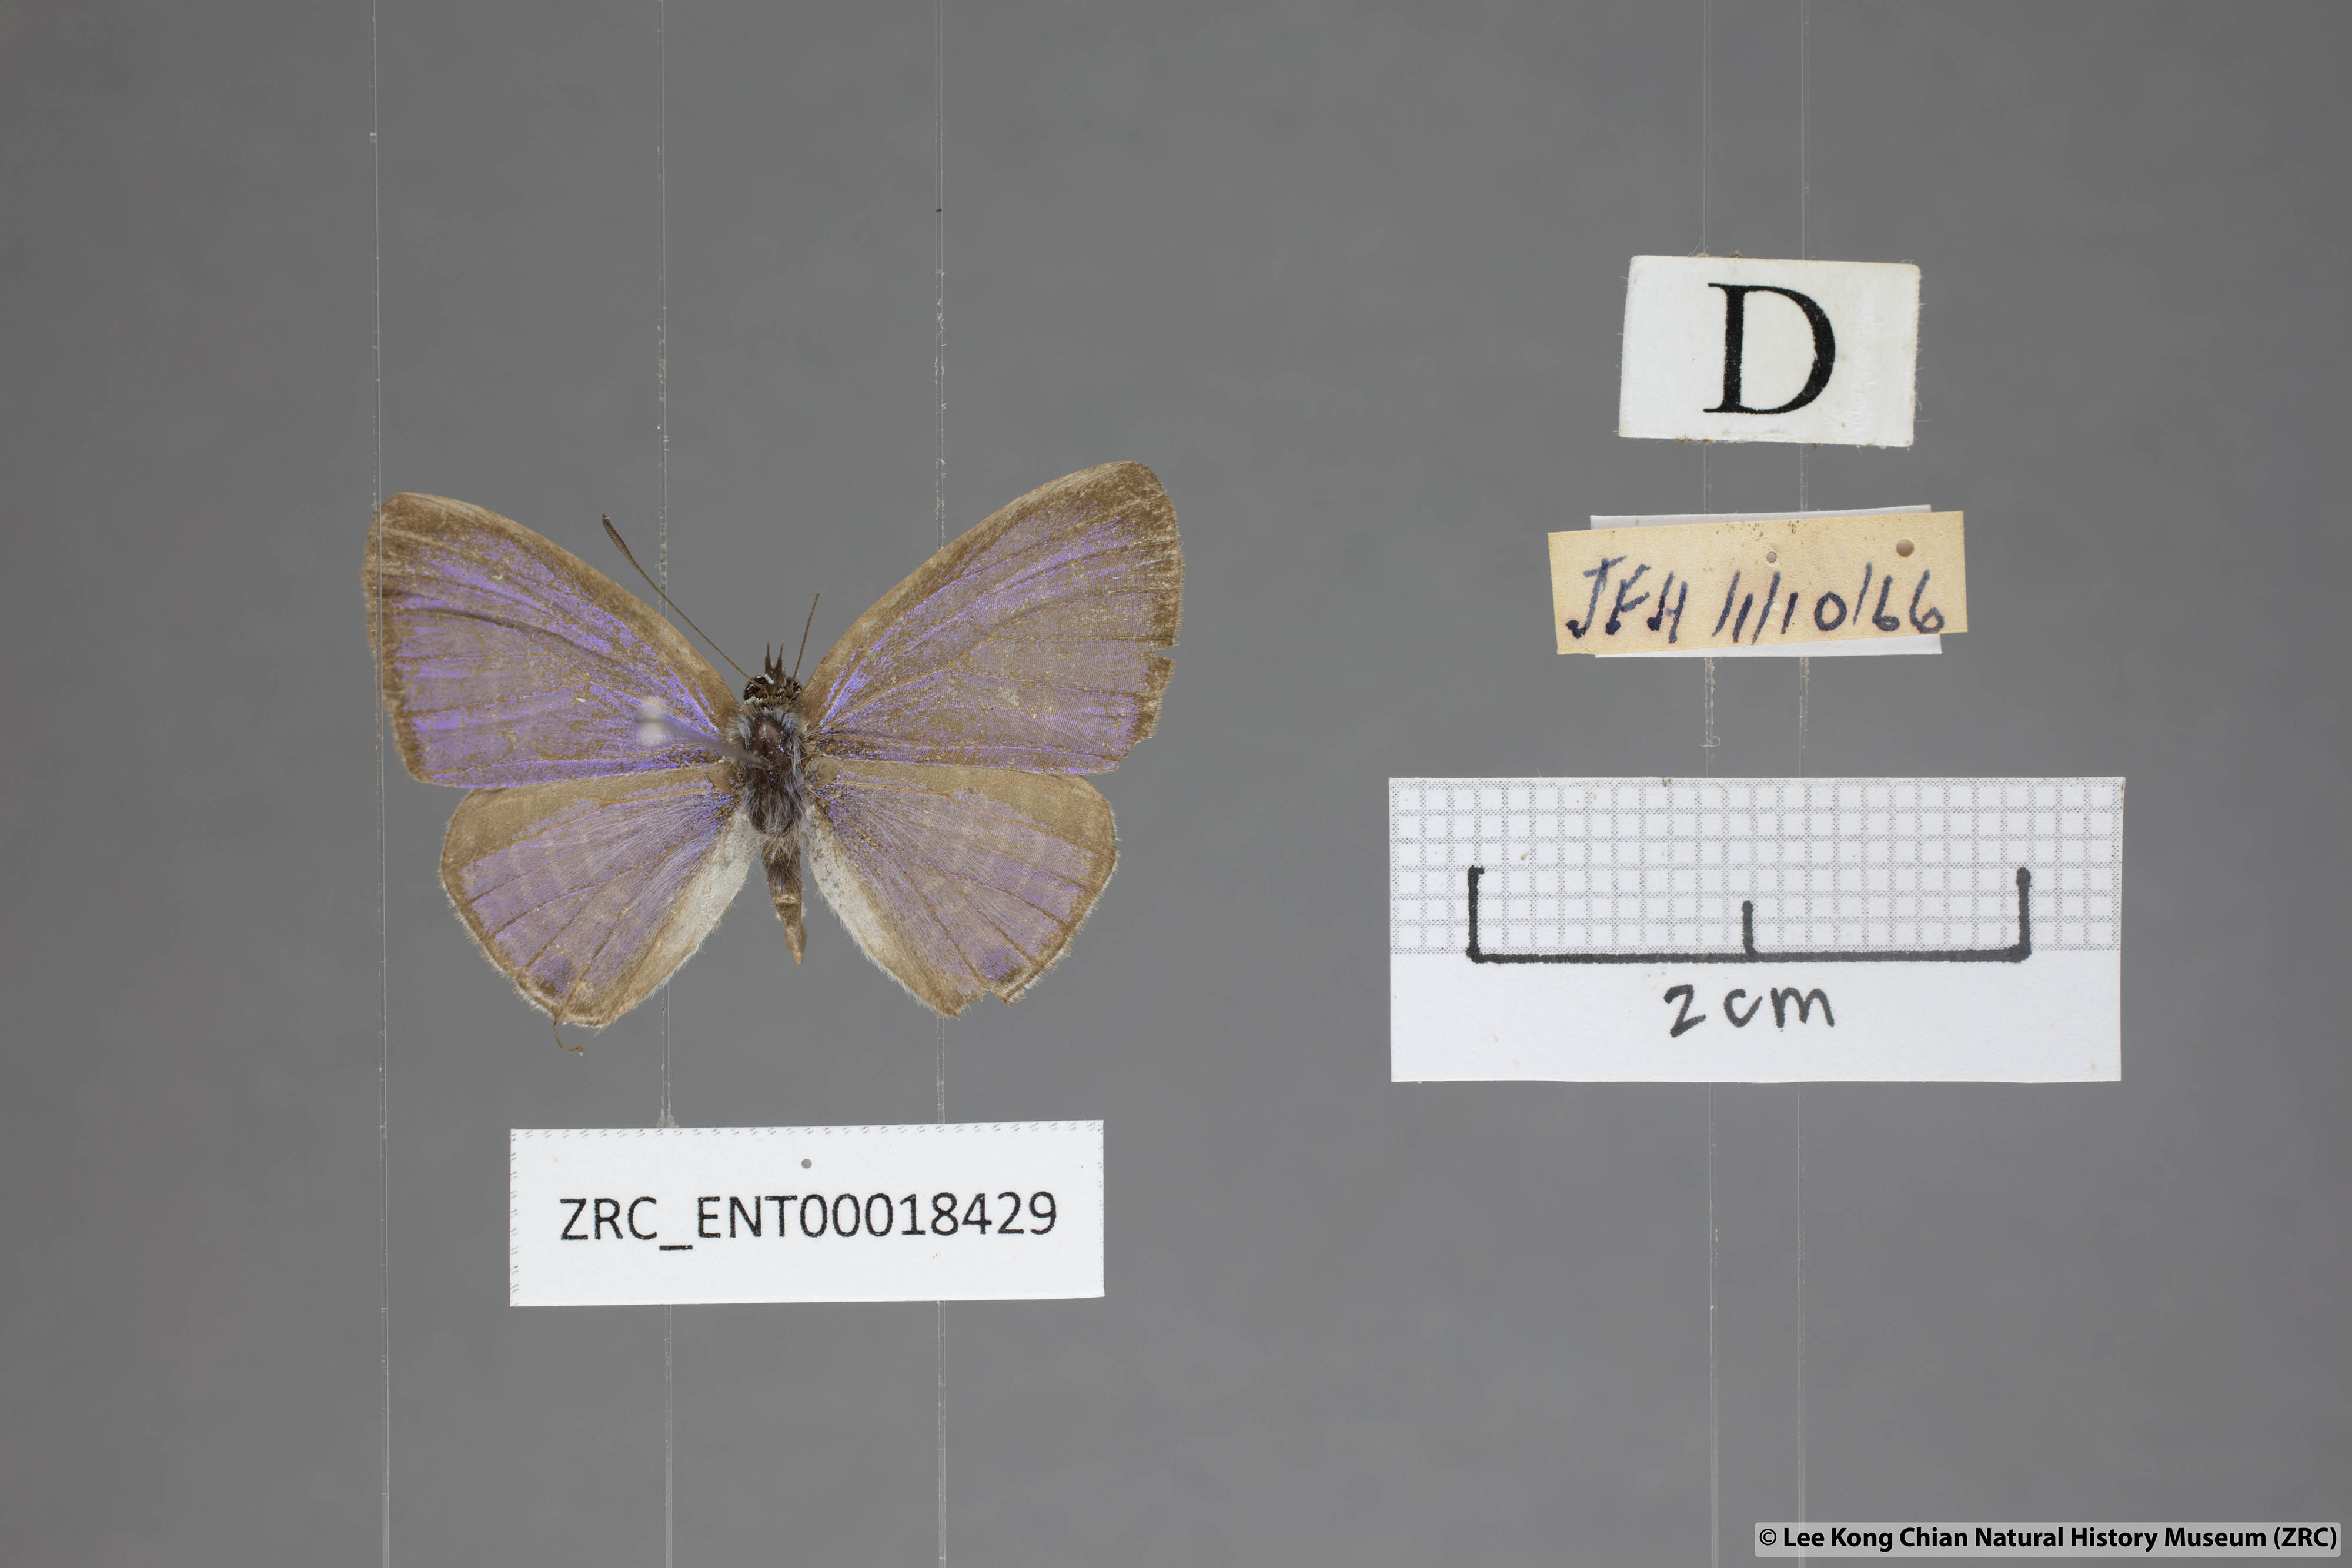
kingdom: Animalia
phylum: Arthropoda
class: Insecta
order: Lepidoptera
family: Lycaenidae
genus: Nacaduba
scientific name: Nacaduba pendleburyi
